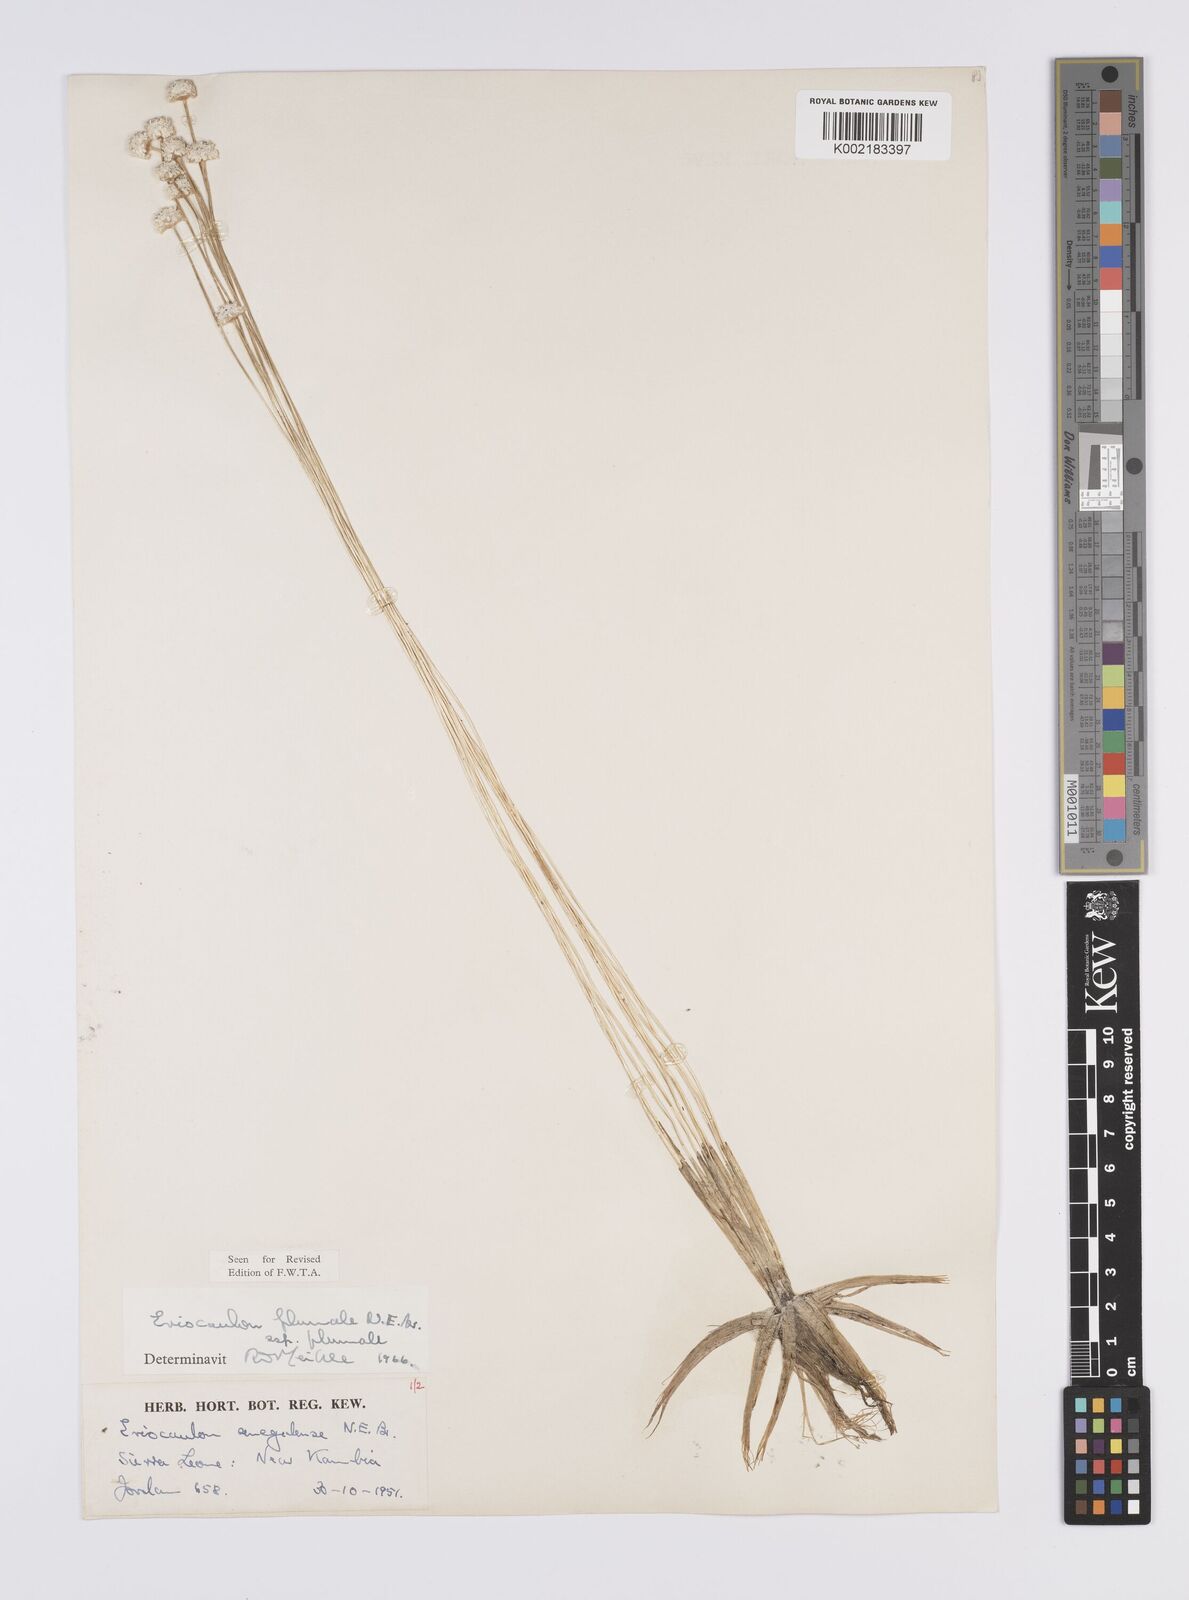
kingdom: Plantae
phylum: Tracheophyta
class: Liliopsida
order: Poales
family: Eriocaulaceae
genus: Eriocaulon
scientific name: Eriocaulon plumale
